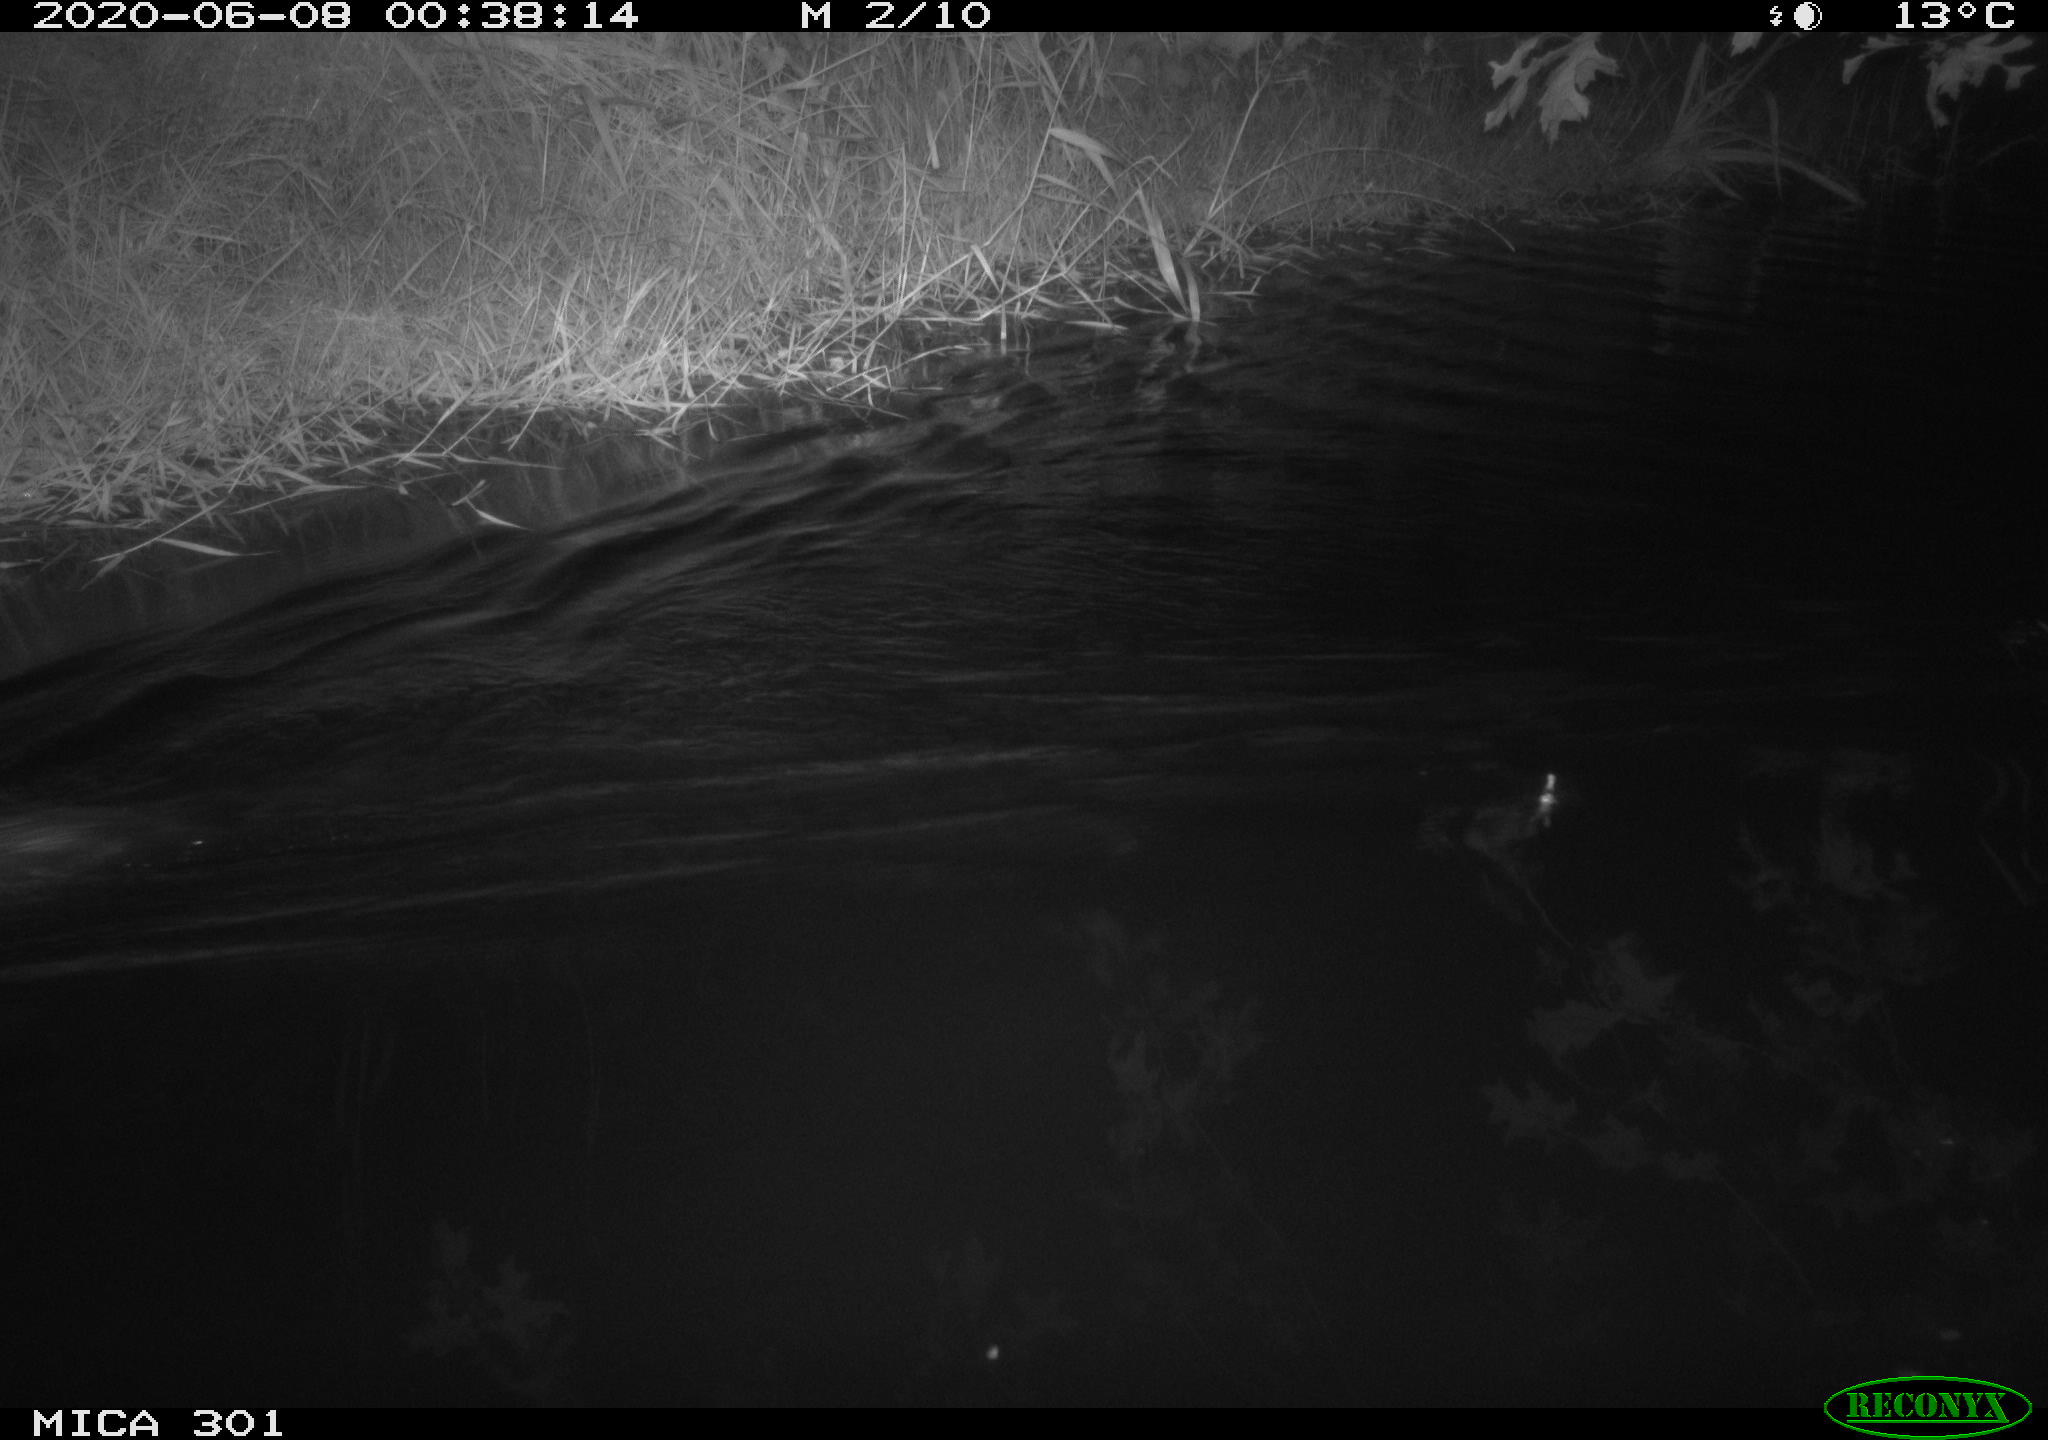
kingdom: Animalia
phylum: Chordata
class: Mammalia
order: Rodentia
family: Castoridae
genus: Castor
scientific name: Castor fiber
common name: Eurasian beaver
